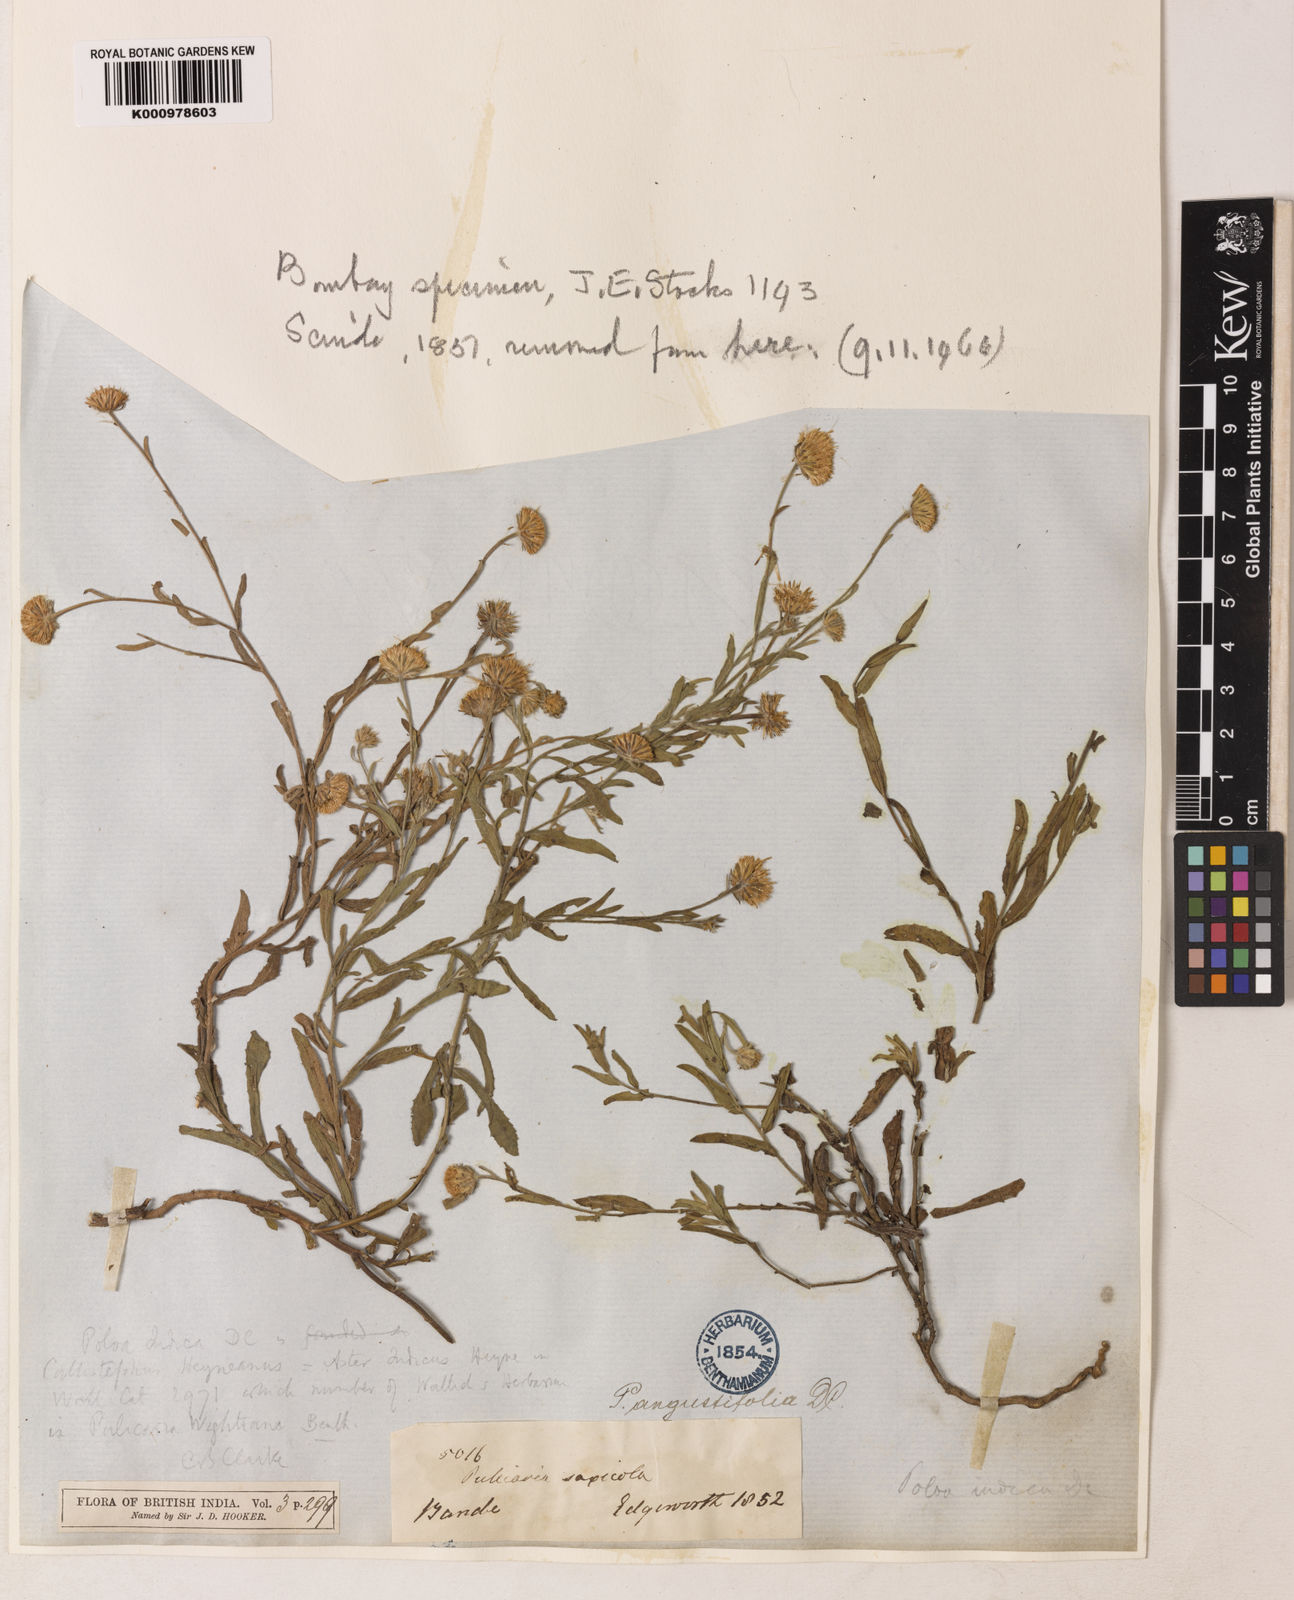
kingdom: Plantae
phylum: Tracheophyta
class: Magnoliopsida
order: Asterales
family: Asteraceae
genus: Pulicaria
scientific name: Pulicaria angustifolia
